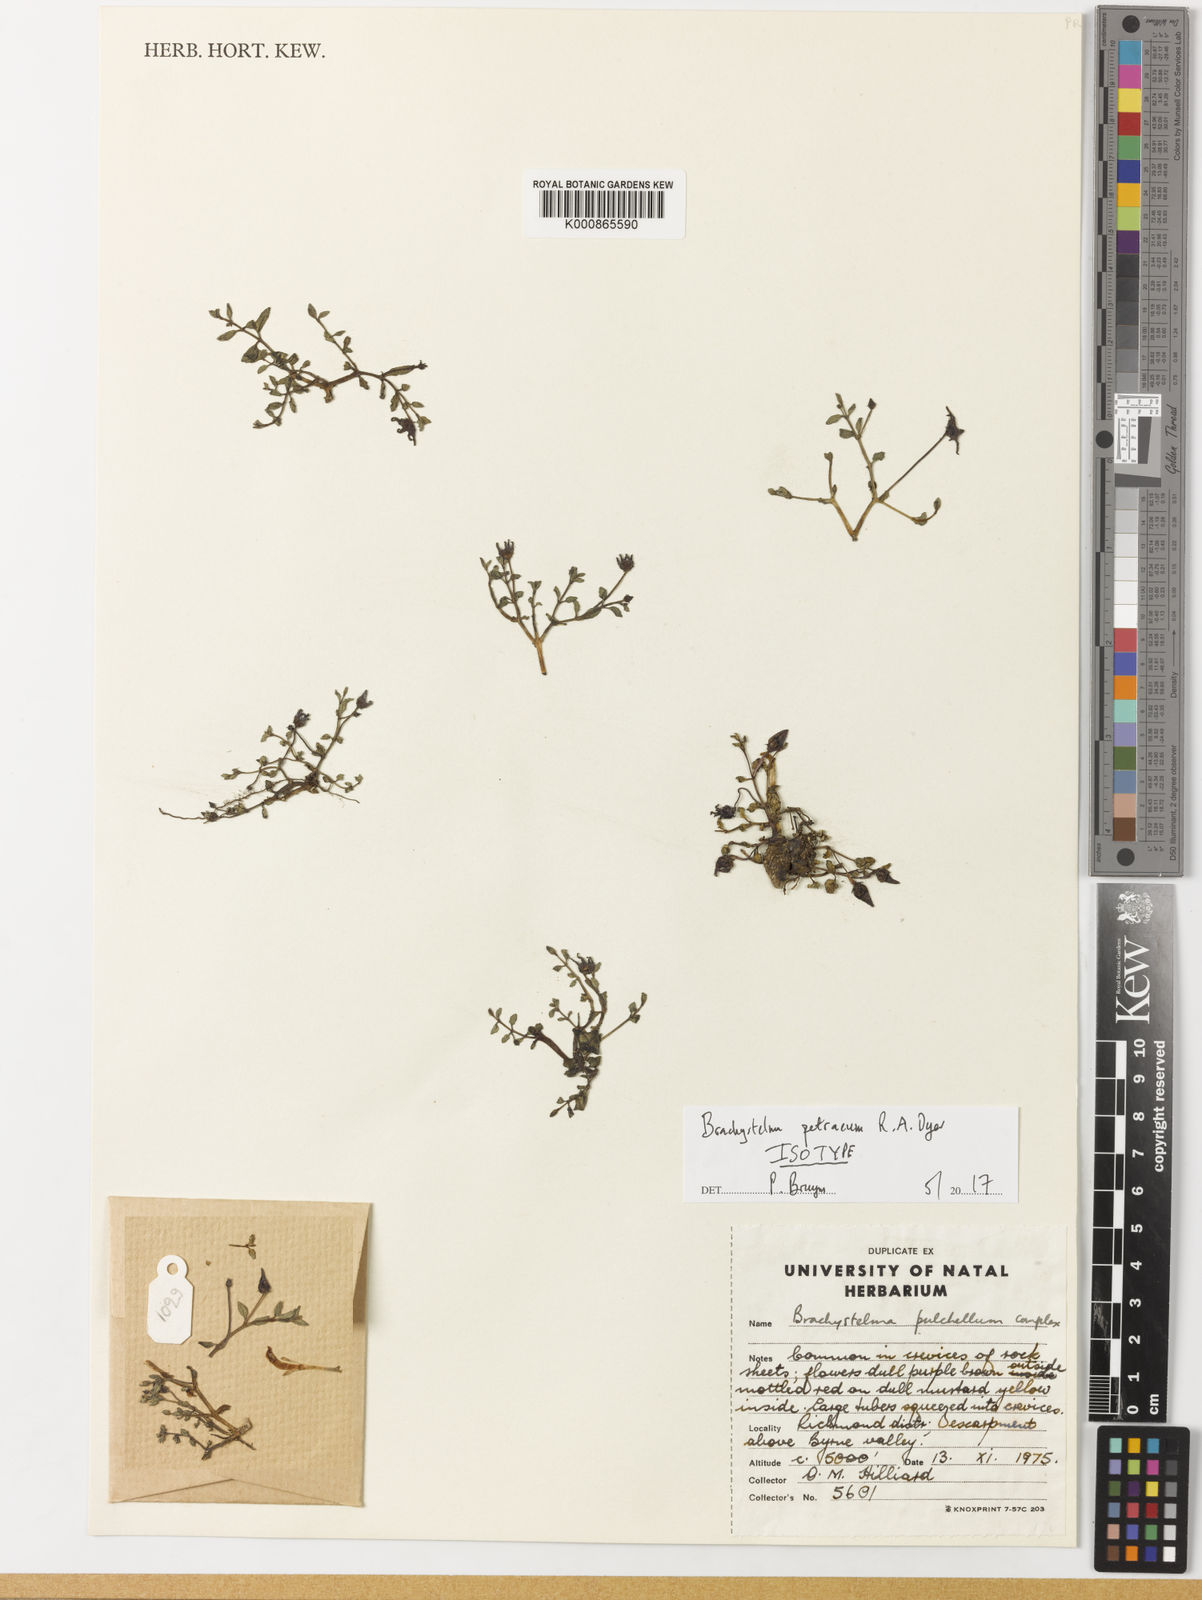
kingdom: Plantae
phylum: Tracheophyta
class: Magnoliopsida
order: Gentianales
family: Apocynaceae
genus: Ceropegia
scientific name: Ceropegia petrophila
